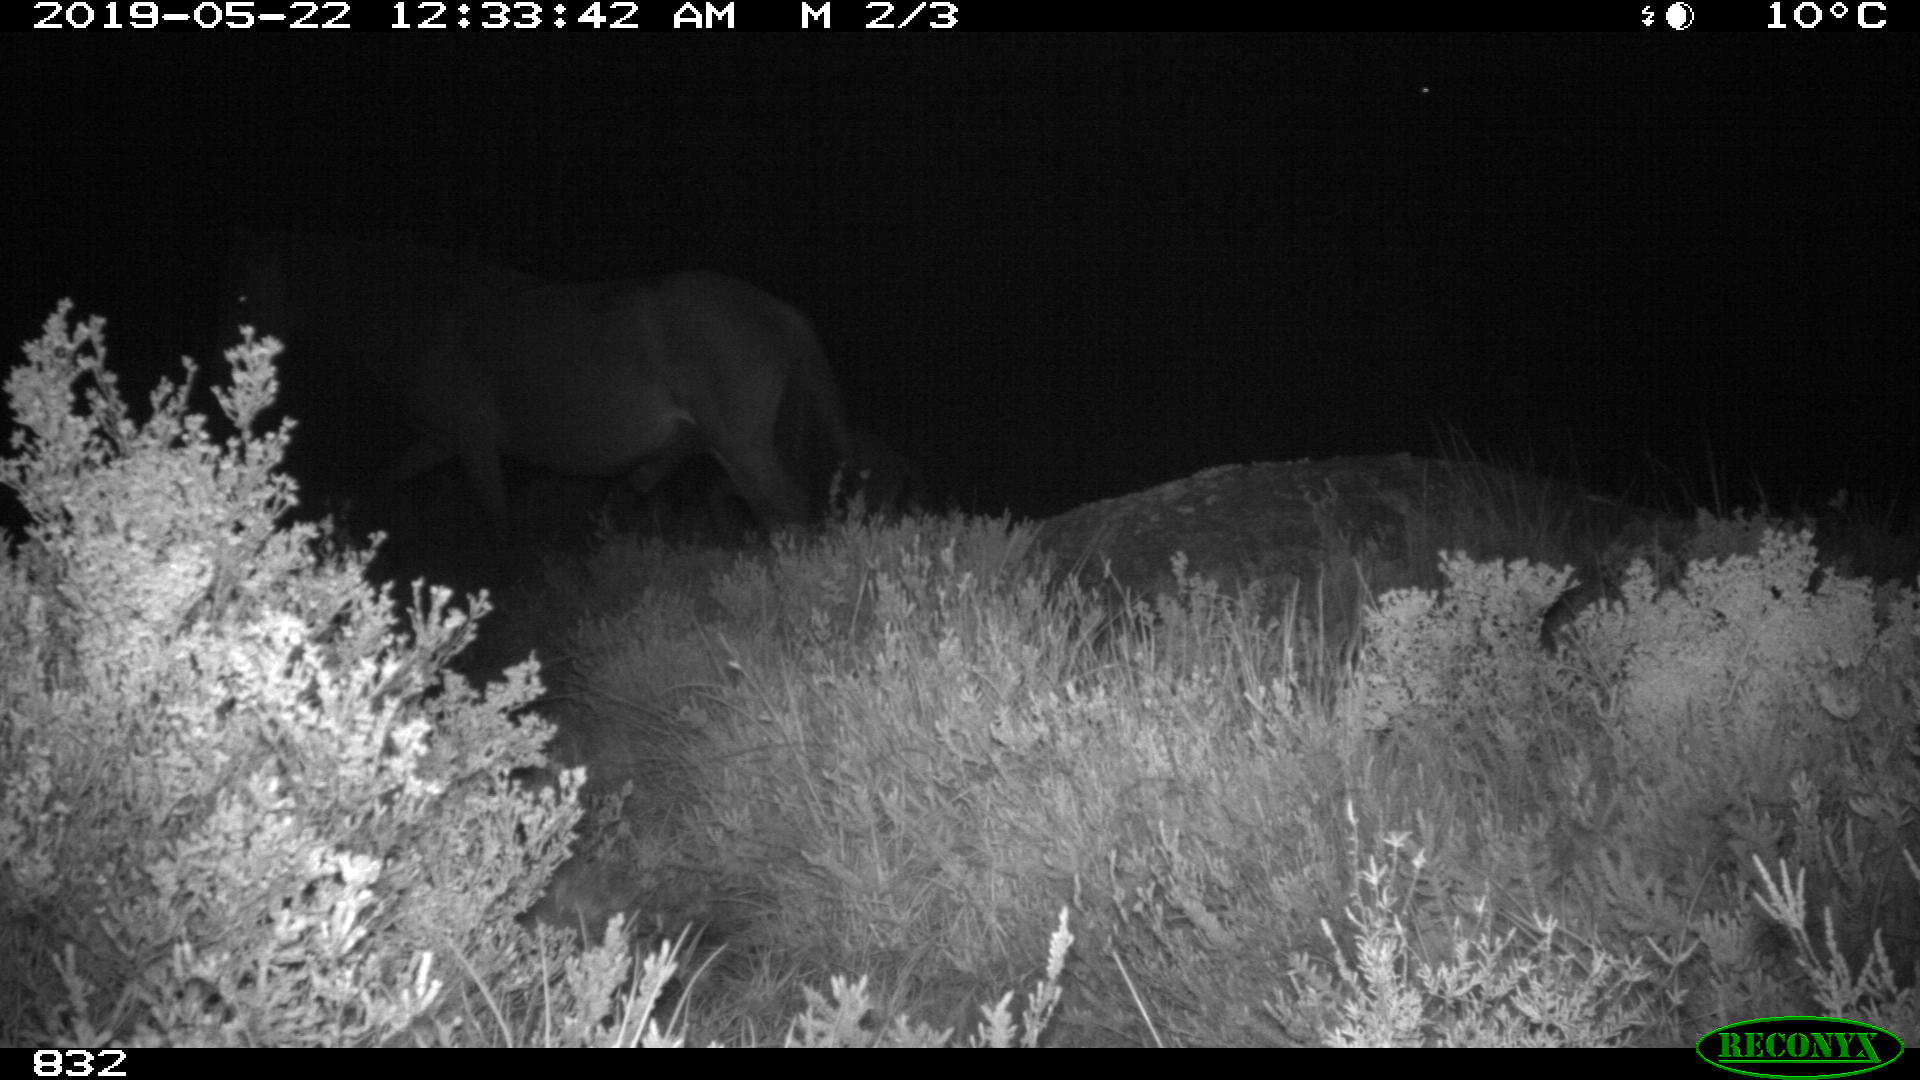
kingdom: Animalia
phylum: Chordata
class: Mammalia
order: Perissodactyla
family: Equidae
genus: Equus
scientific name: Equus caballus
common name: Horse
